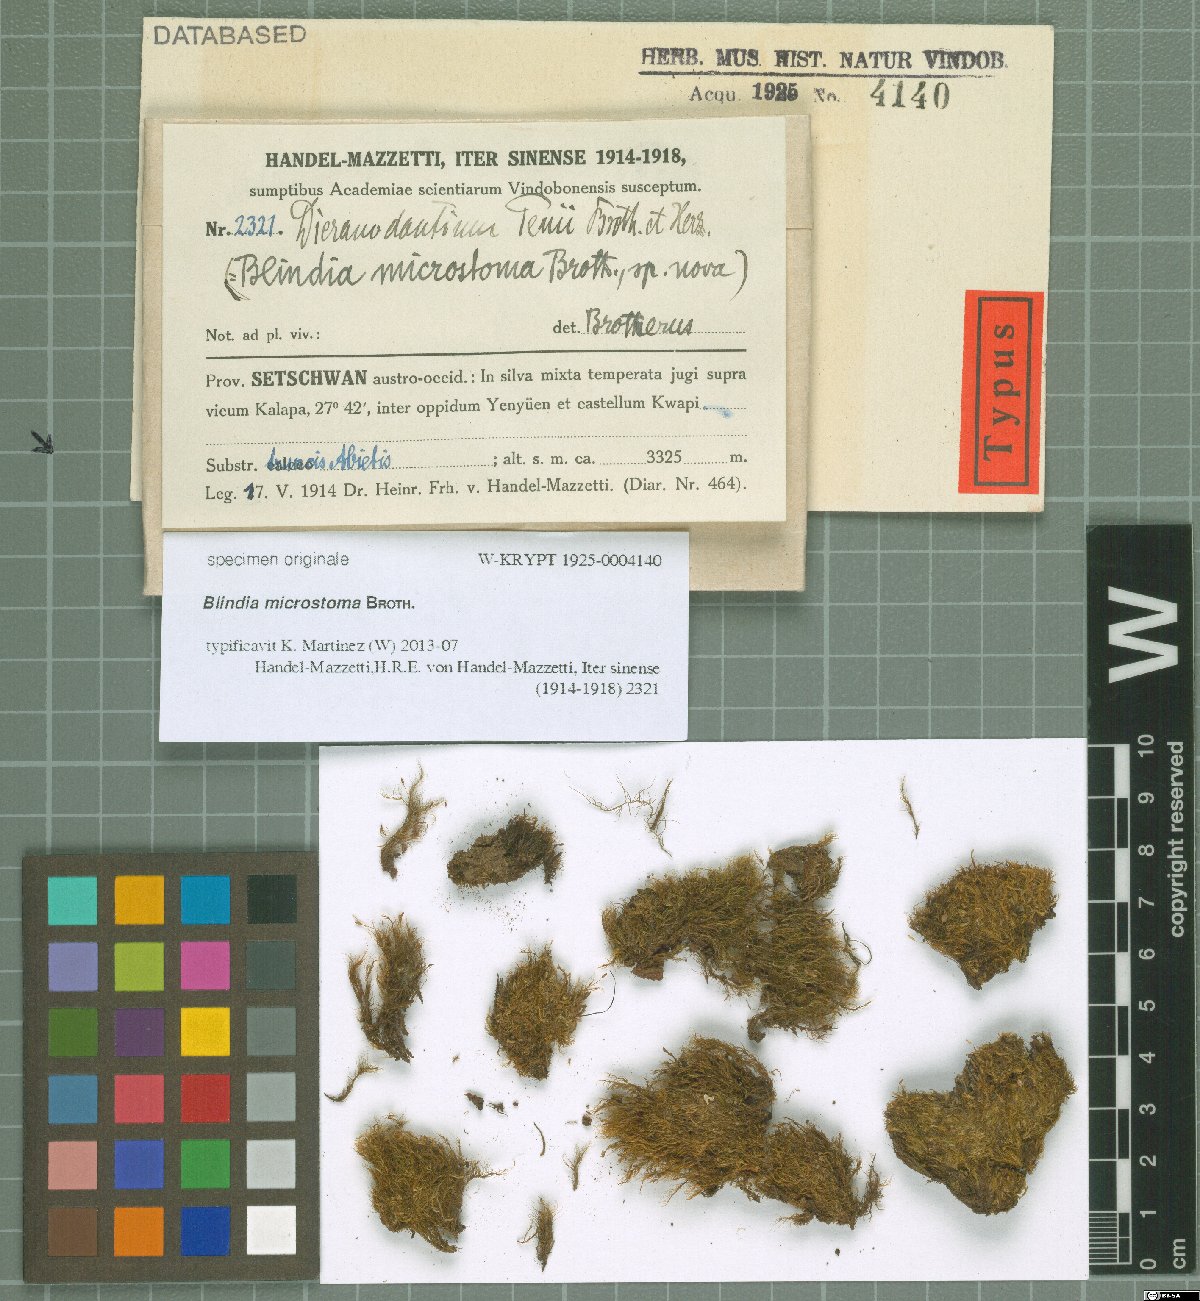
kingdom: Plantae
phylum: Bryophyta
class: Bryopsida
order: Dicranales
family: Dicranaceae
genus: Dicranum
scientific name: Dicranum hamulosum
